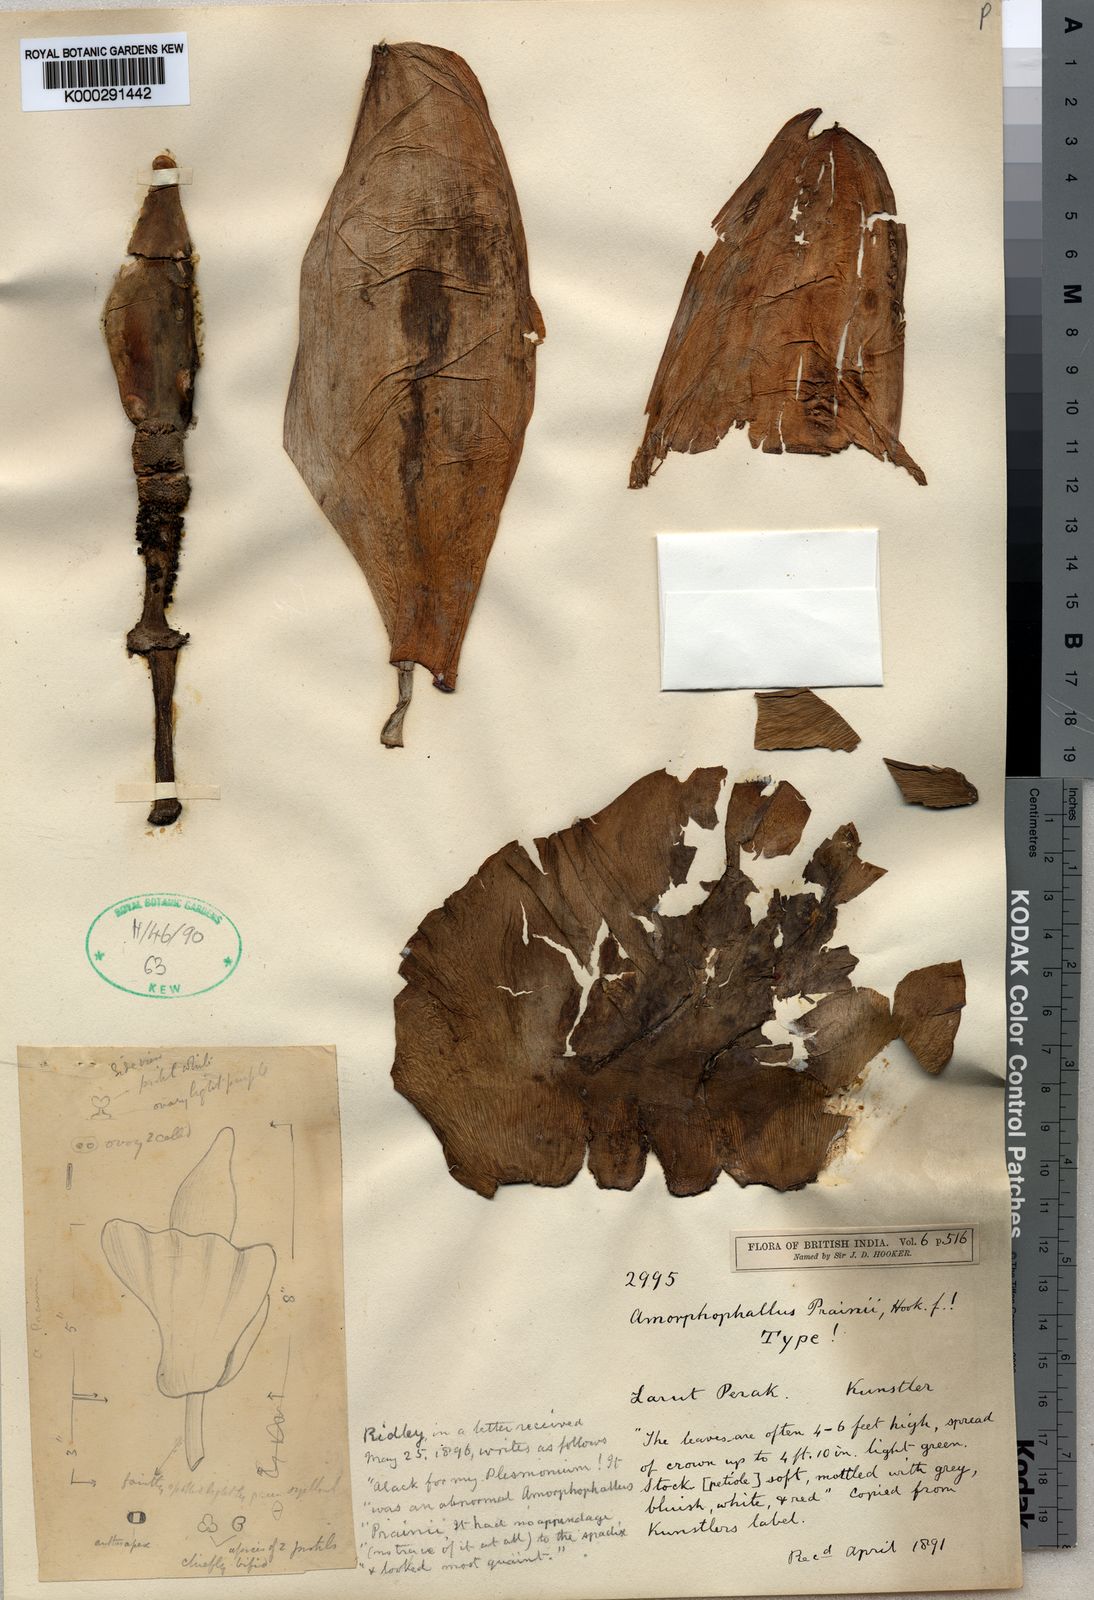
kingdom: Plantae
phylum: Tracheophyta
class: Liliopsida
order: Alismatales
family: Araceae
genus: Amorphophallus
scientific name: Amorphophallus prainii
